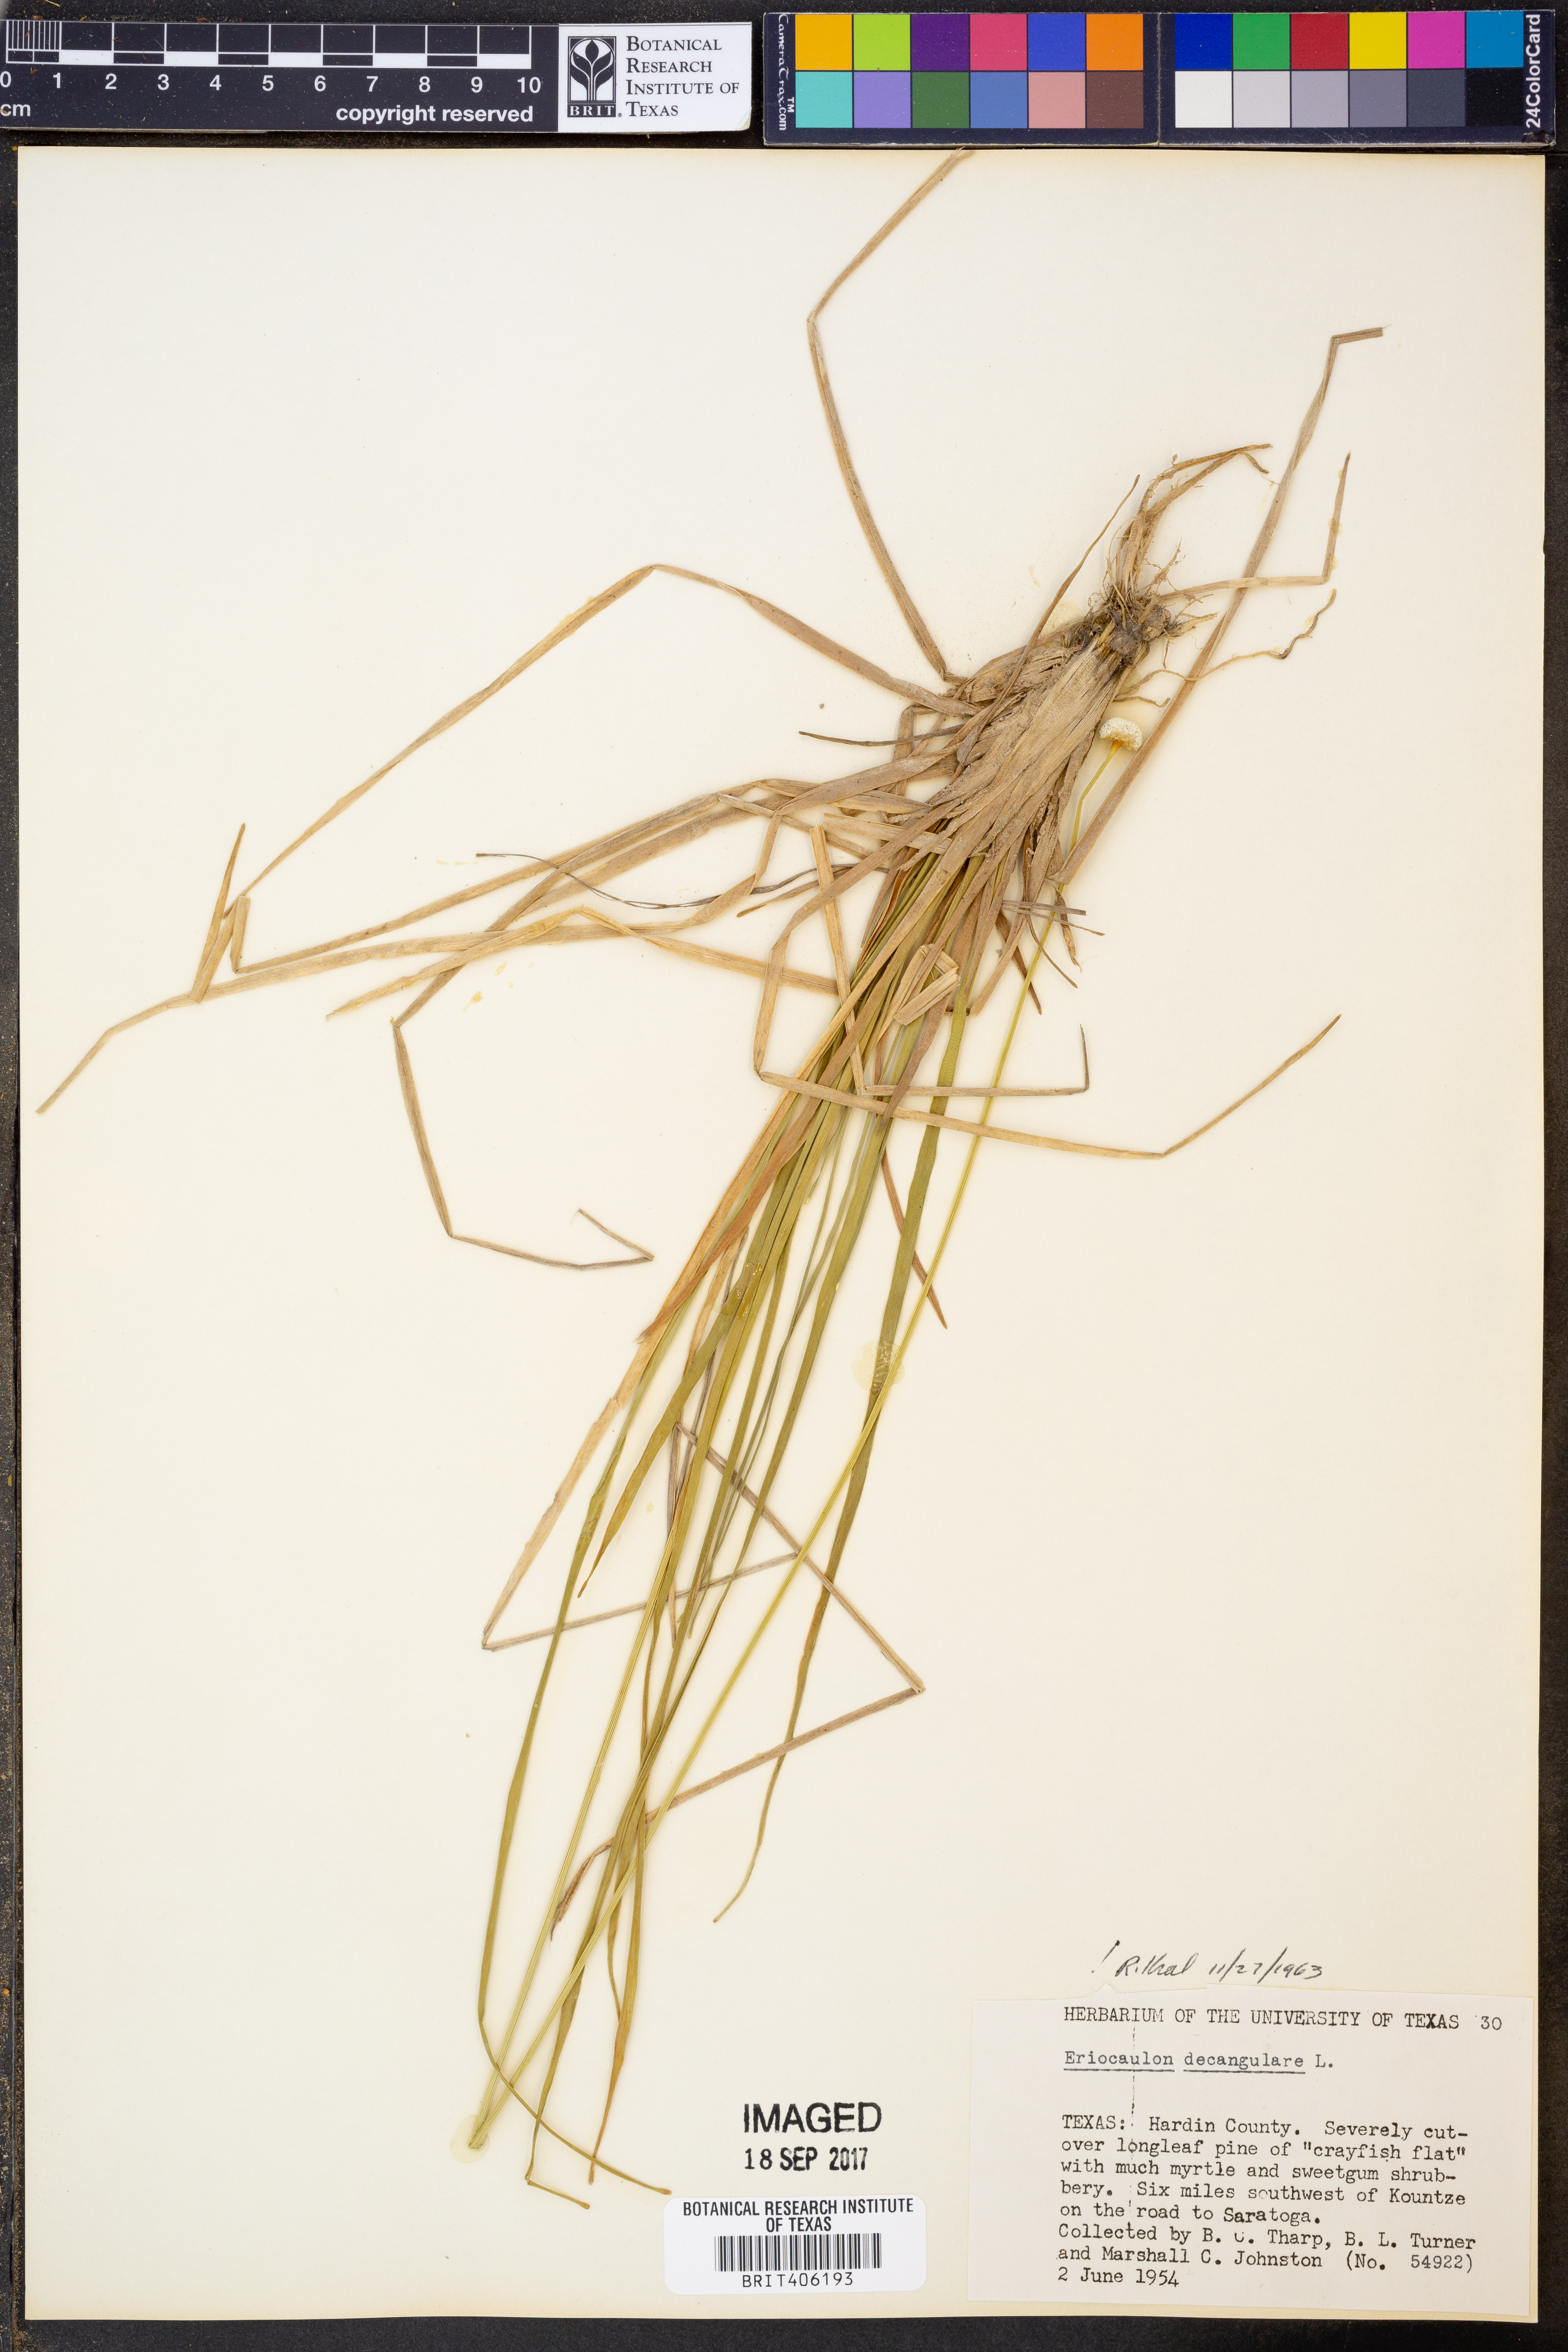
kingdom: Plantae
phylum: Tracheophyta
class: Liliopsida
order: Poales
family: Eriocaulaceae
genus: Eriocaulon
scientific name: Eriocaulon decangulare
